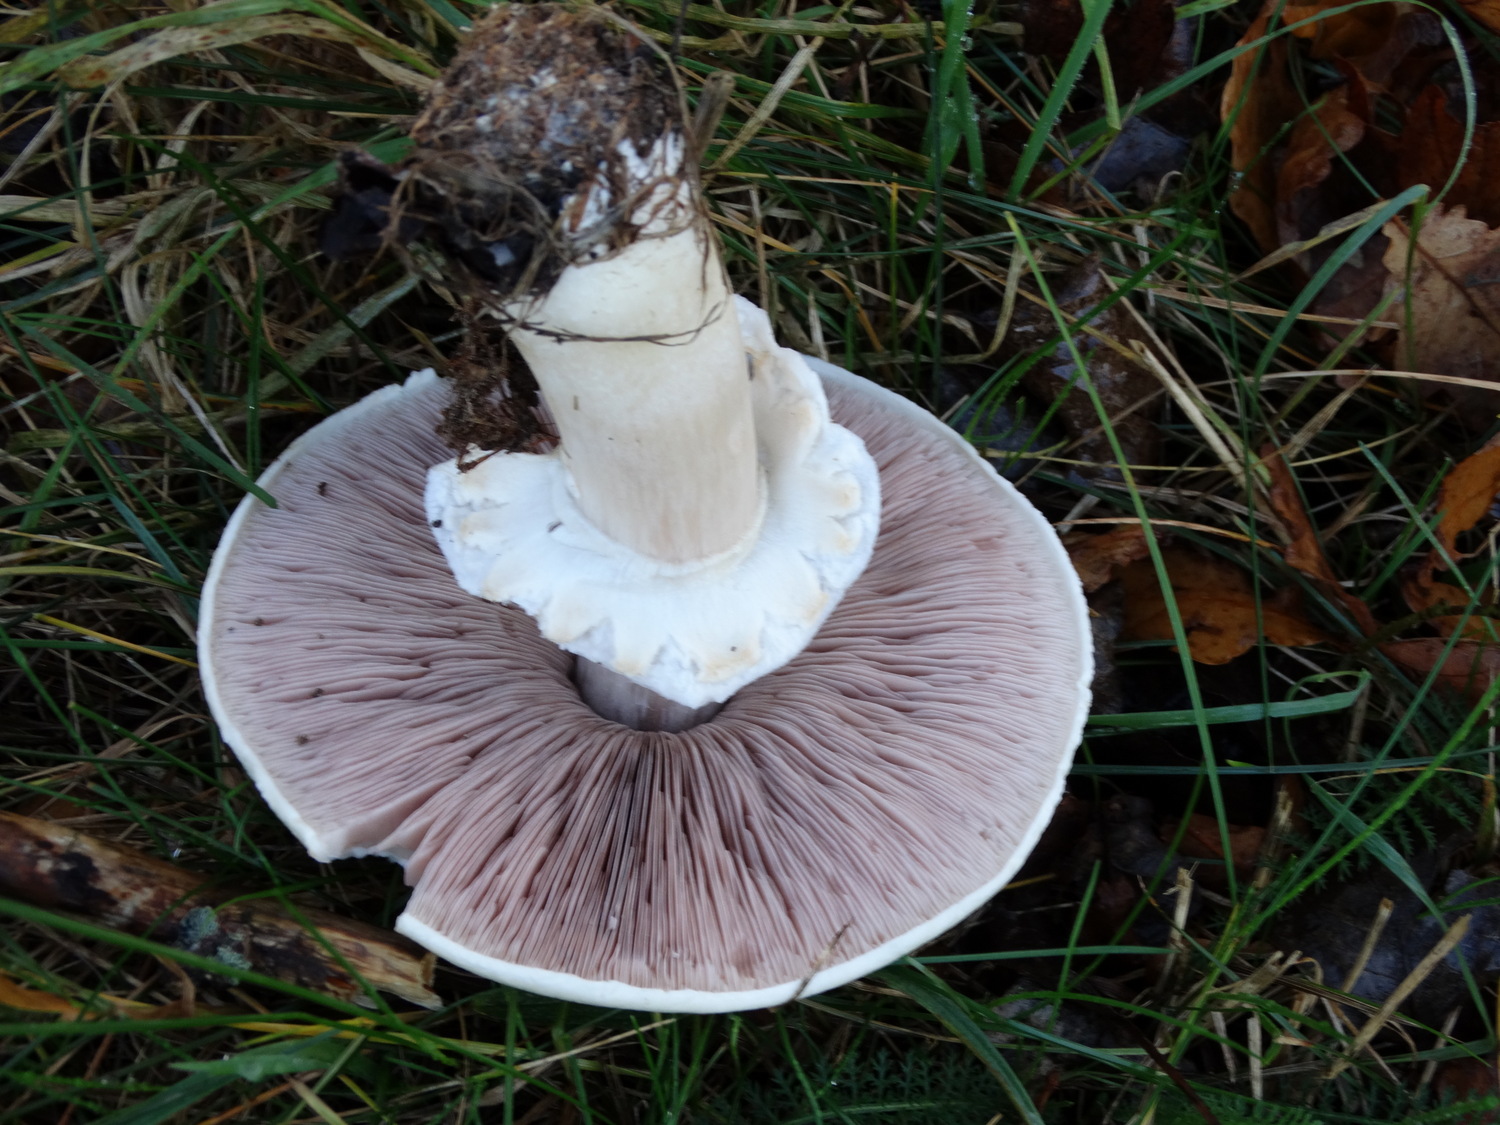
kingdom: Fungi
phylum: Basidiomycota
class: Agaricomycetes
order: Agaricales
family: Agaricaceae
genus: Agaricus
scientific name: Agaricus arvensis
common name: ager-champignon
